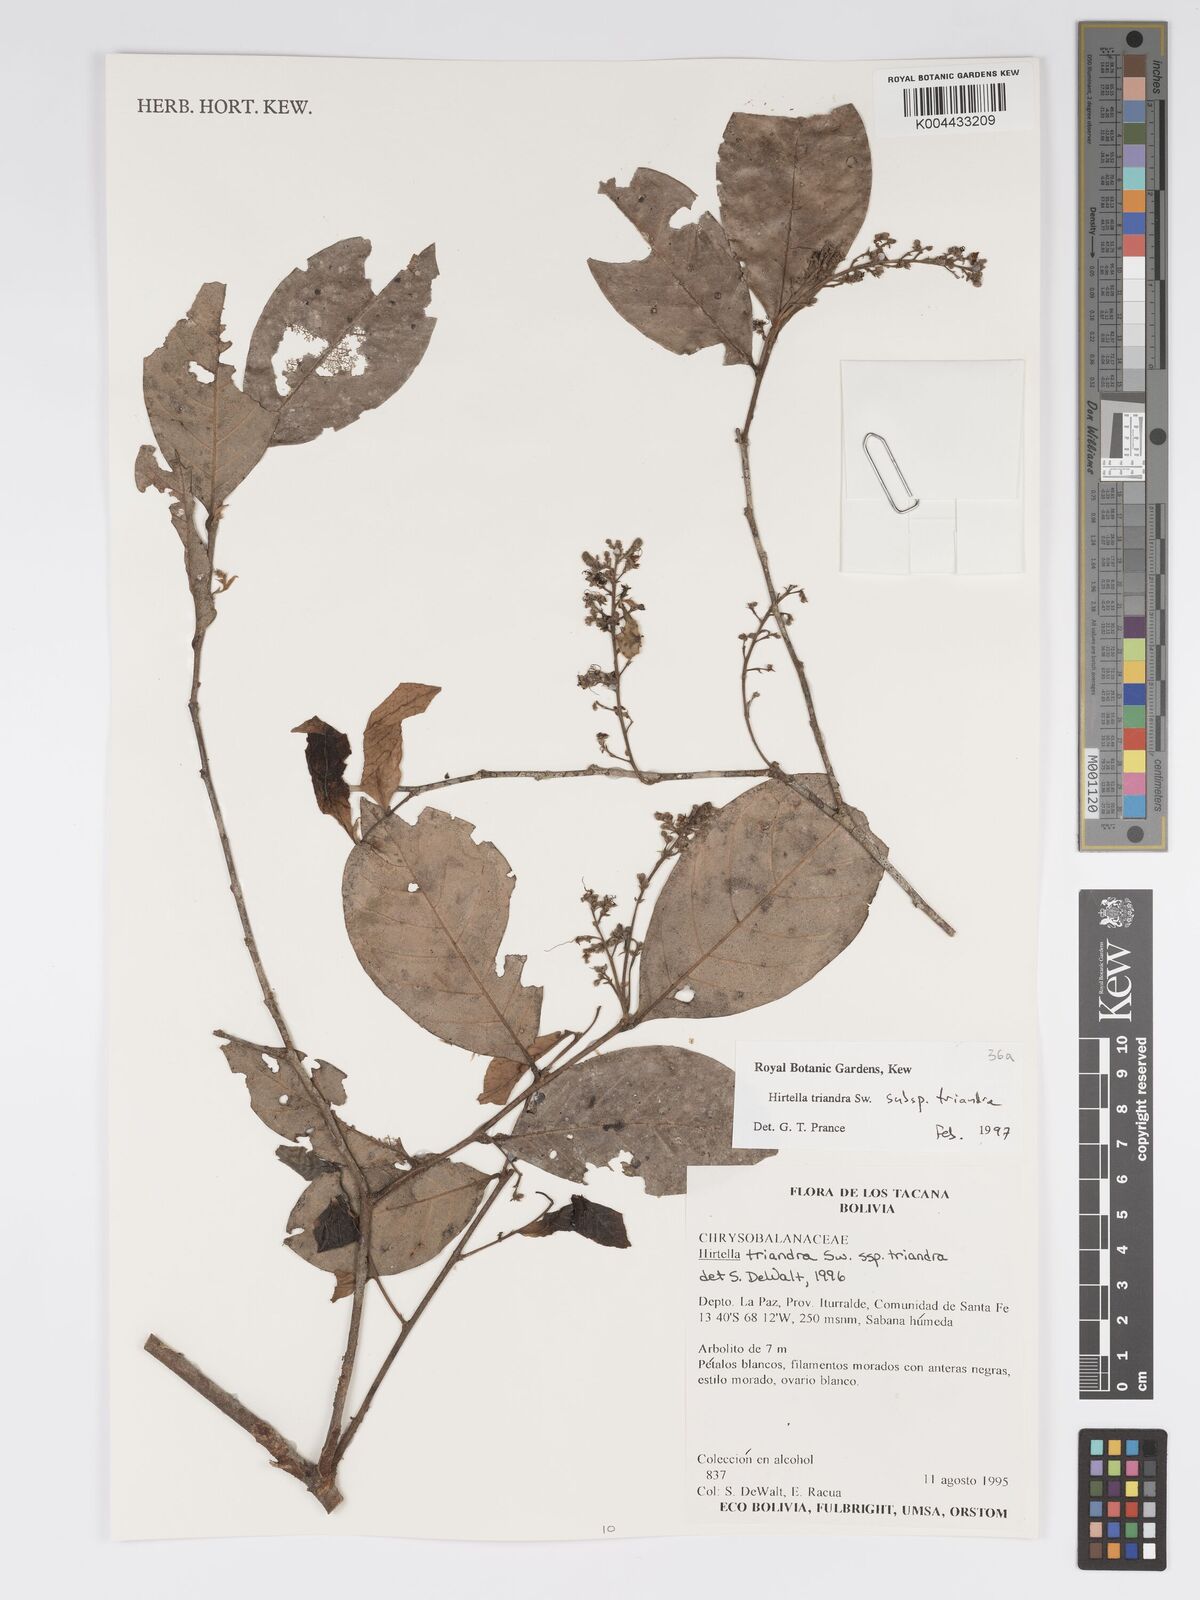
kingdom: Plantae
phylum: Tracheophyta
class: Magnoliopsida
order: Malpighiales
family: Chrysobalanaceae
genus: Hirtella
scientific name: Hirtella triandra
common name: Hairy plum
